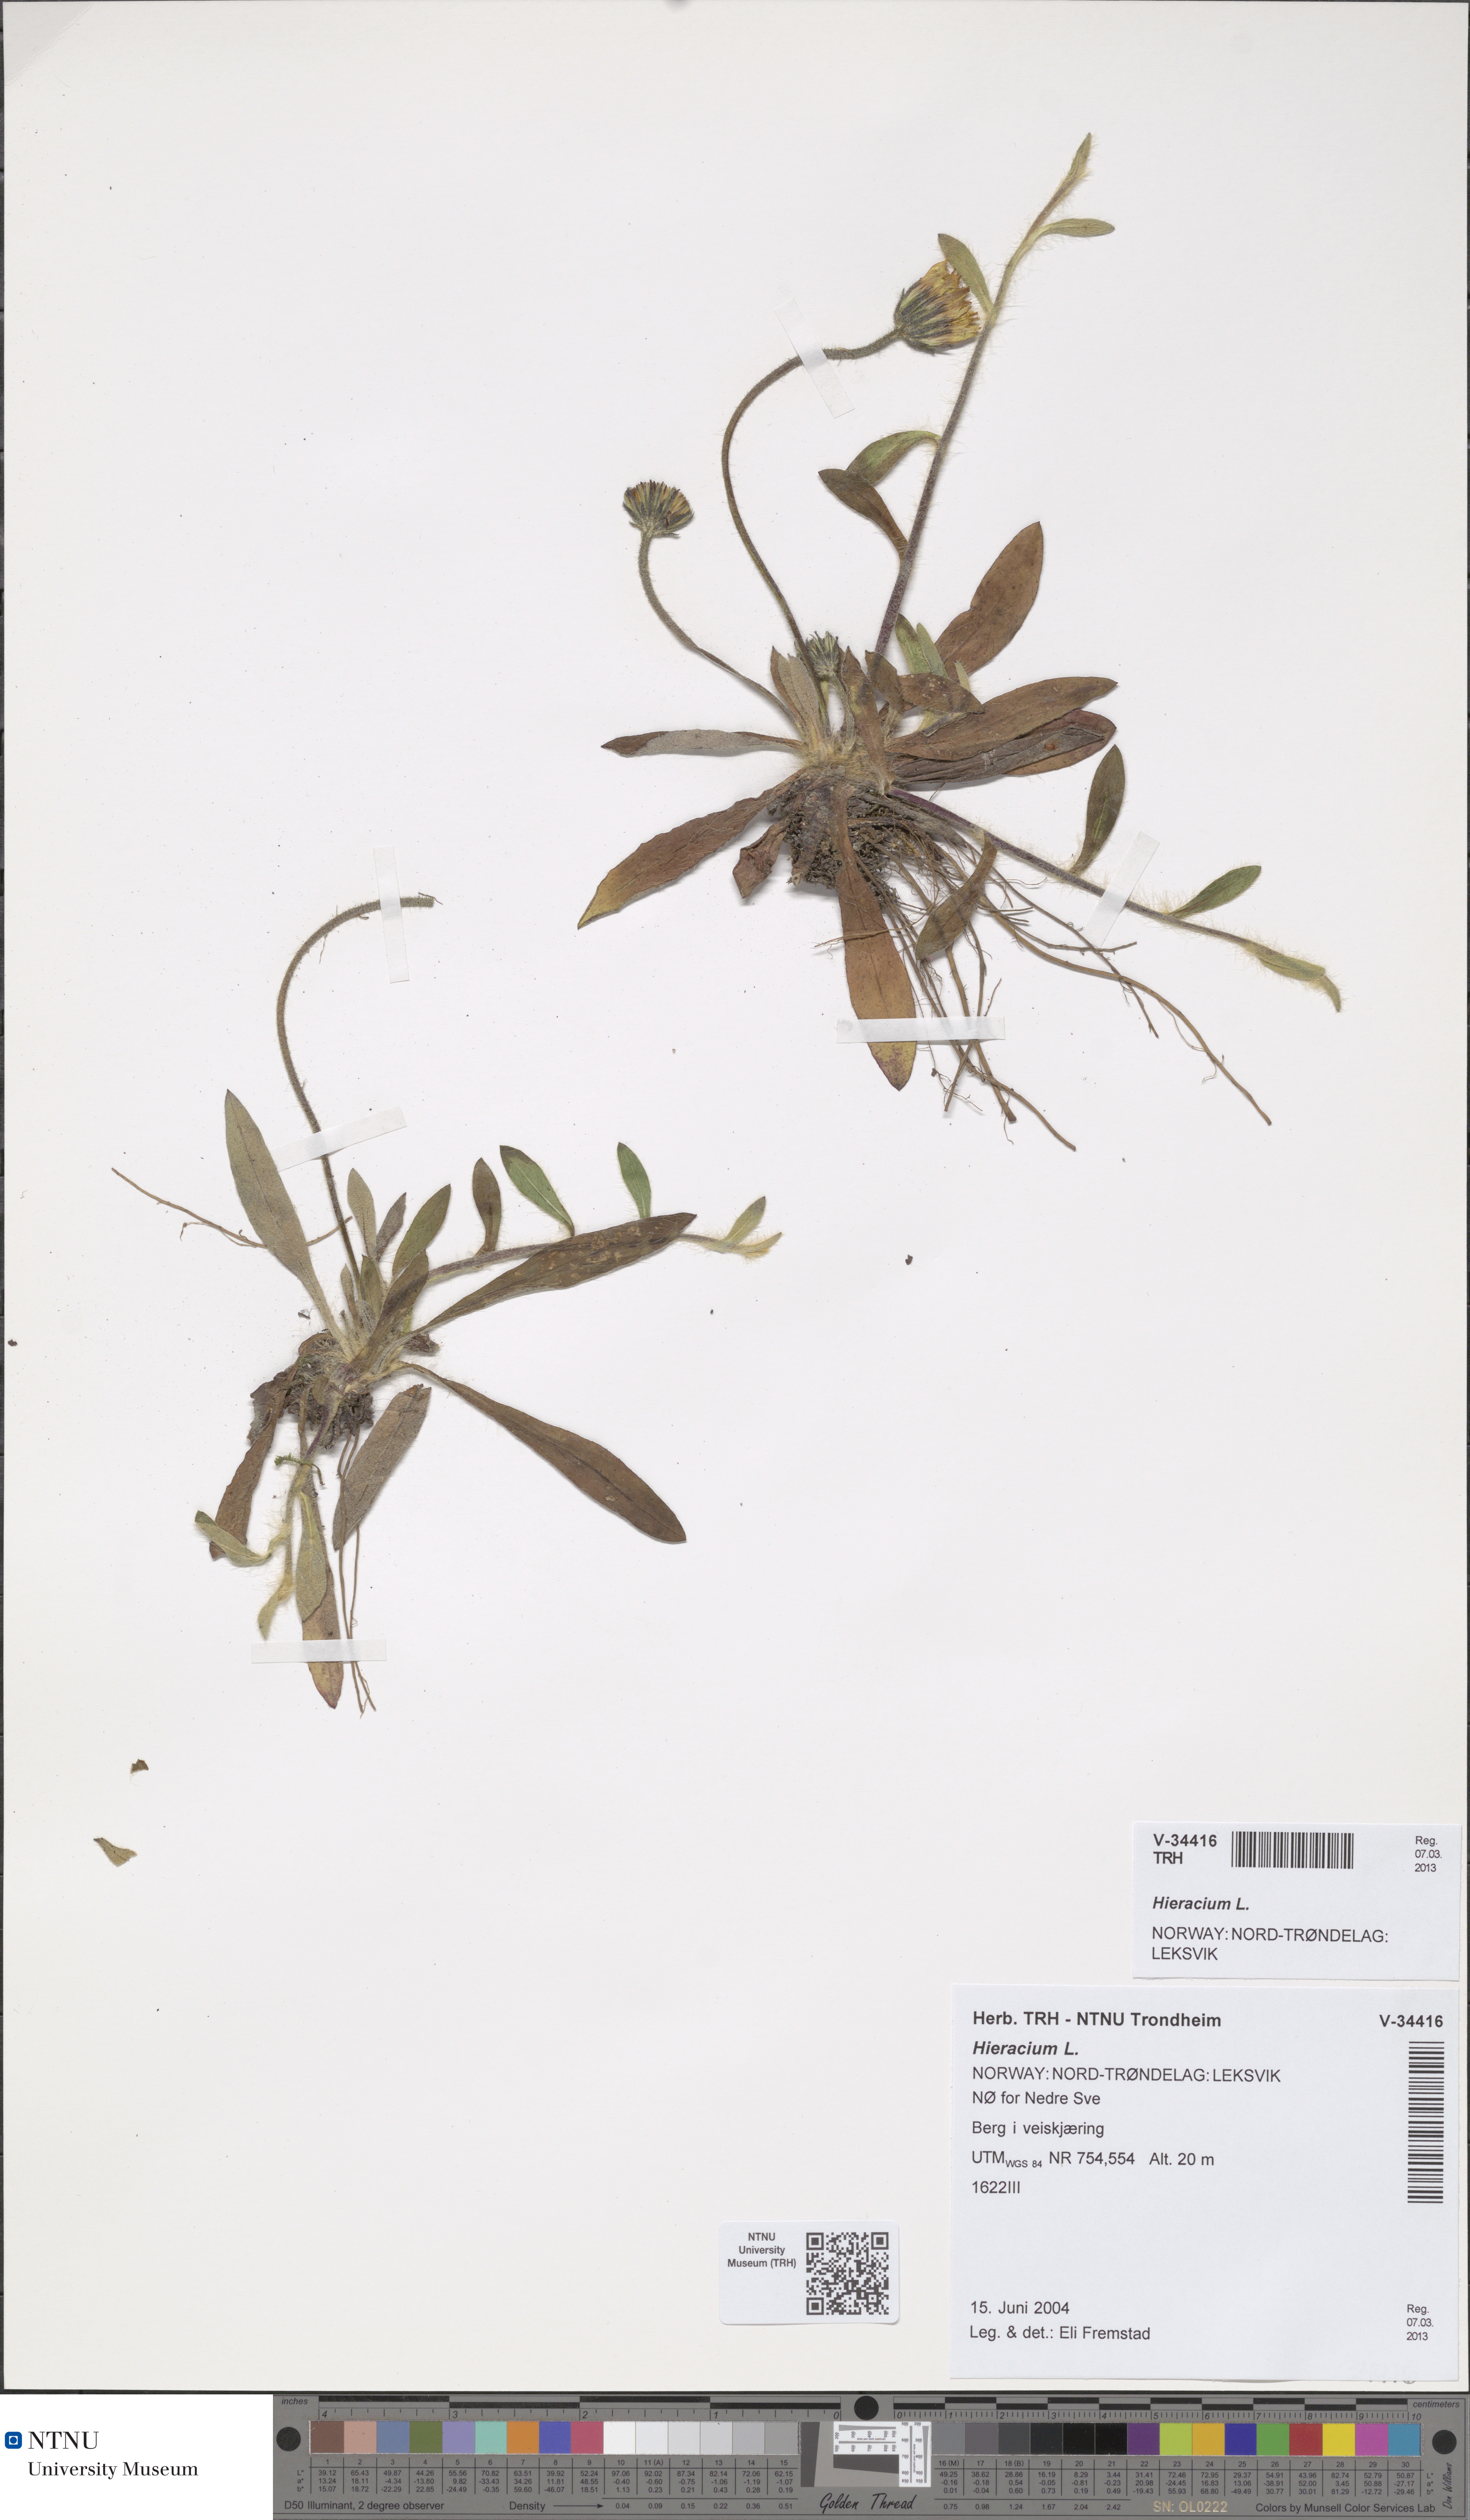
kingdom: Plantae
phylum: Tracheophyta
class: Magnoliopsida
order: Asterales
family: Asteraceae
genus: Hieracium
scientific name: Hieracium
